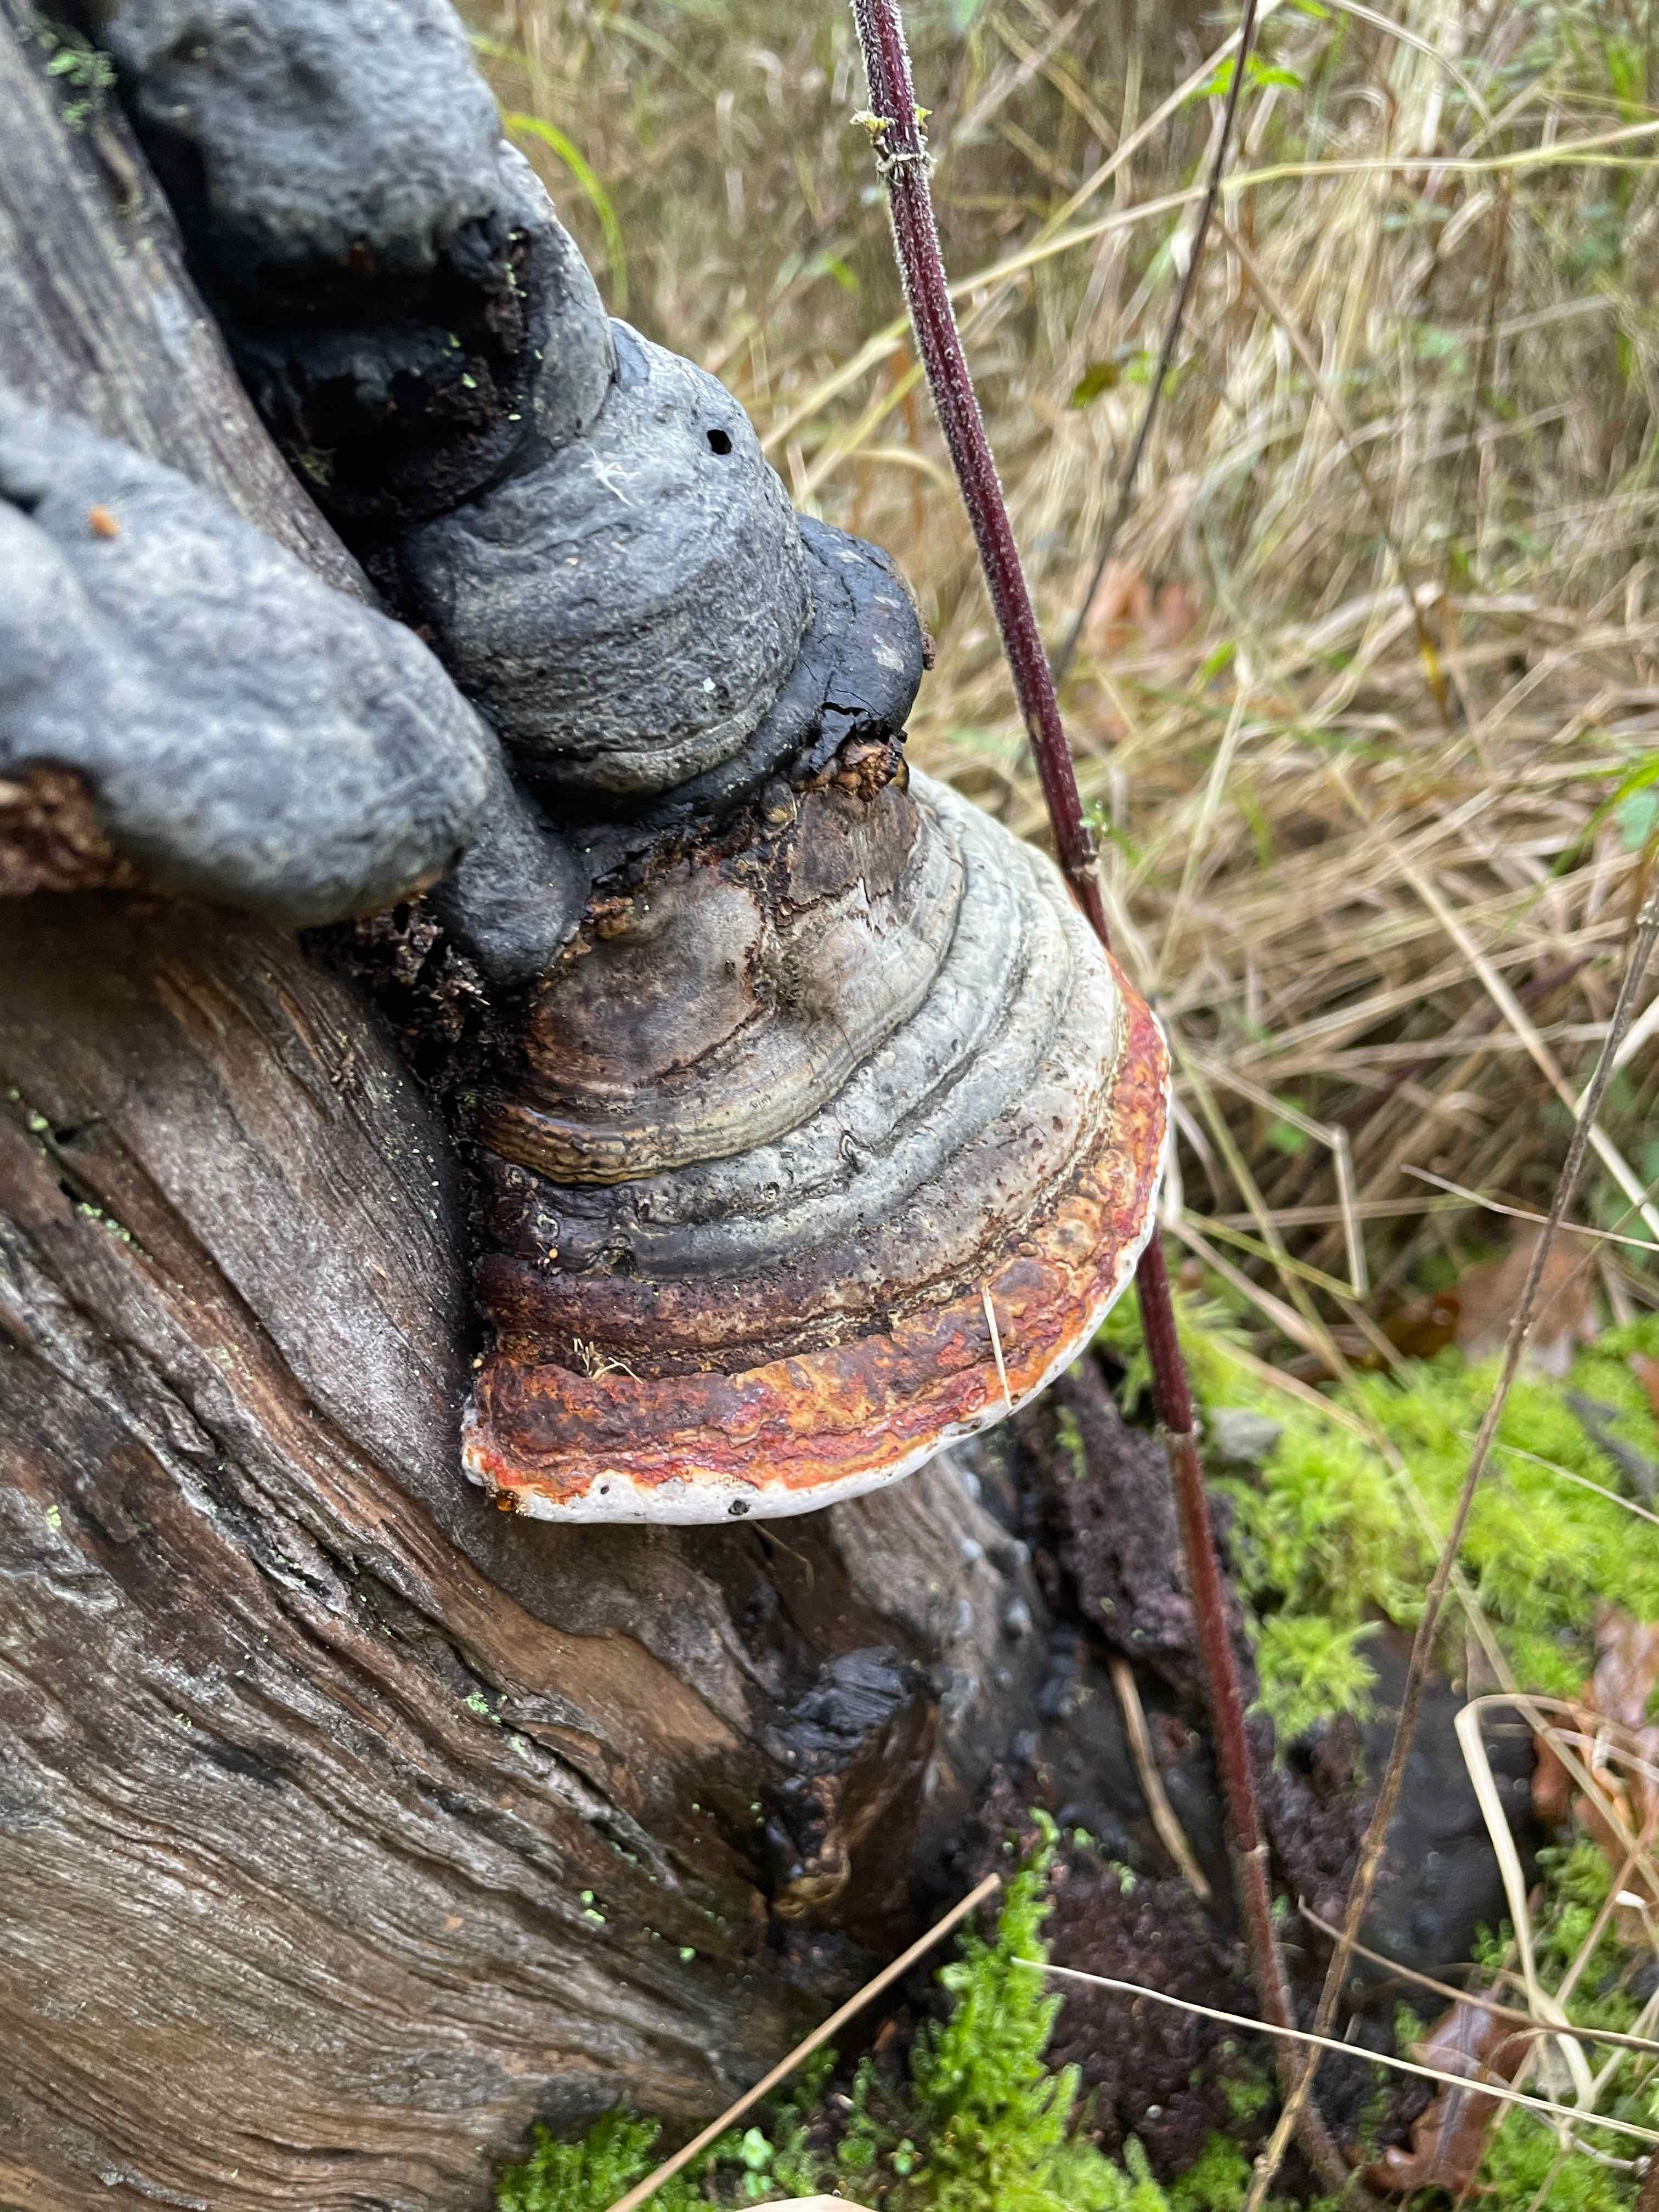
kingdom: Fungi
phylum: Basidiomycota
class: Agaricomycetes
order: Polyporales
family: Polyporaceae
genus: Fomes
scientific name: Fomes fomentarius
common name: tøndersvamp
